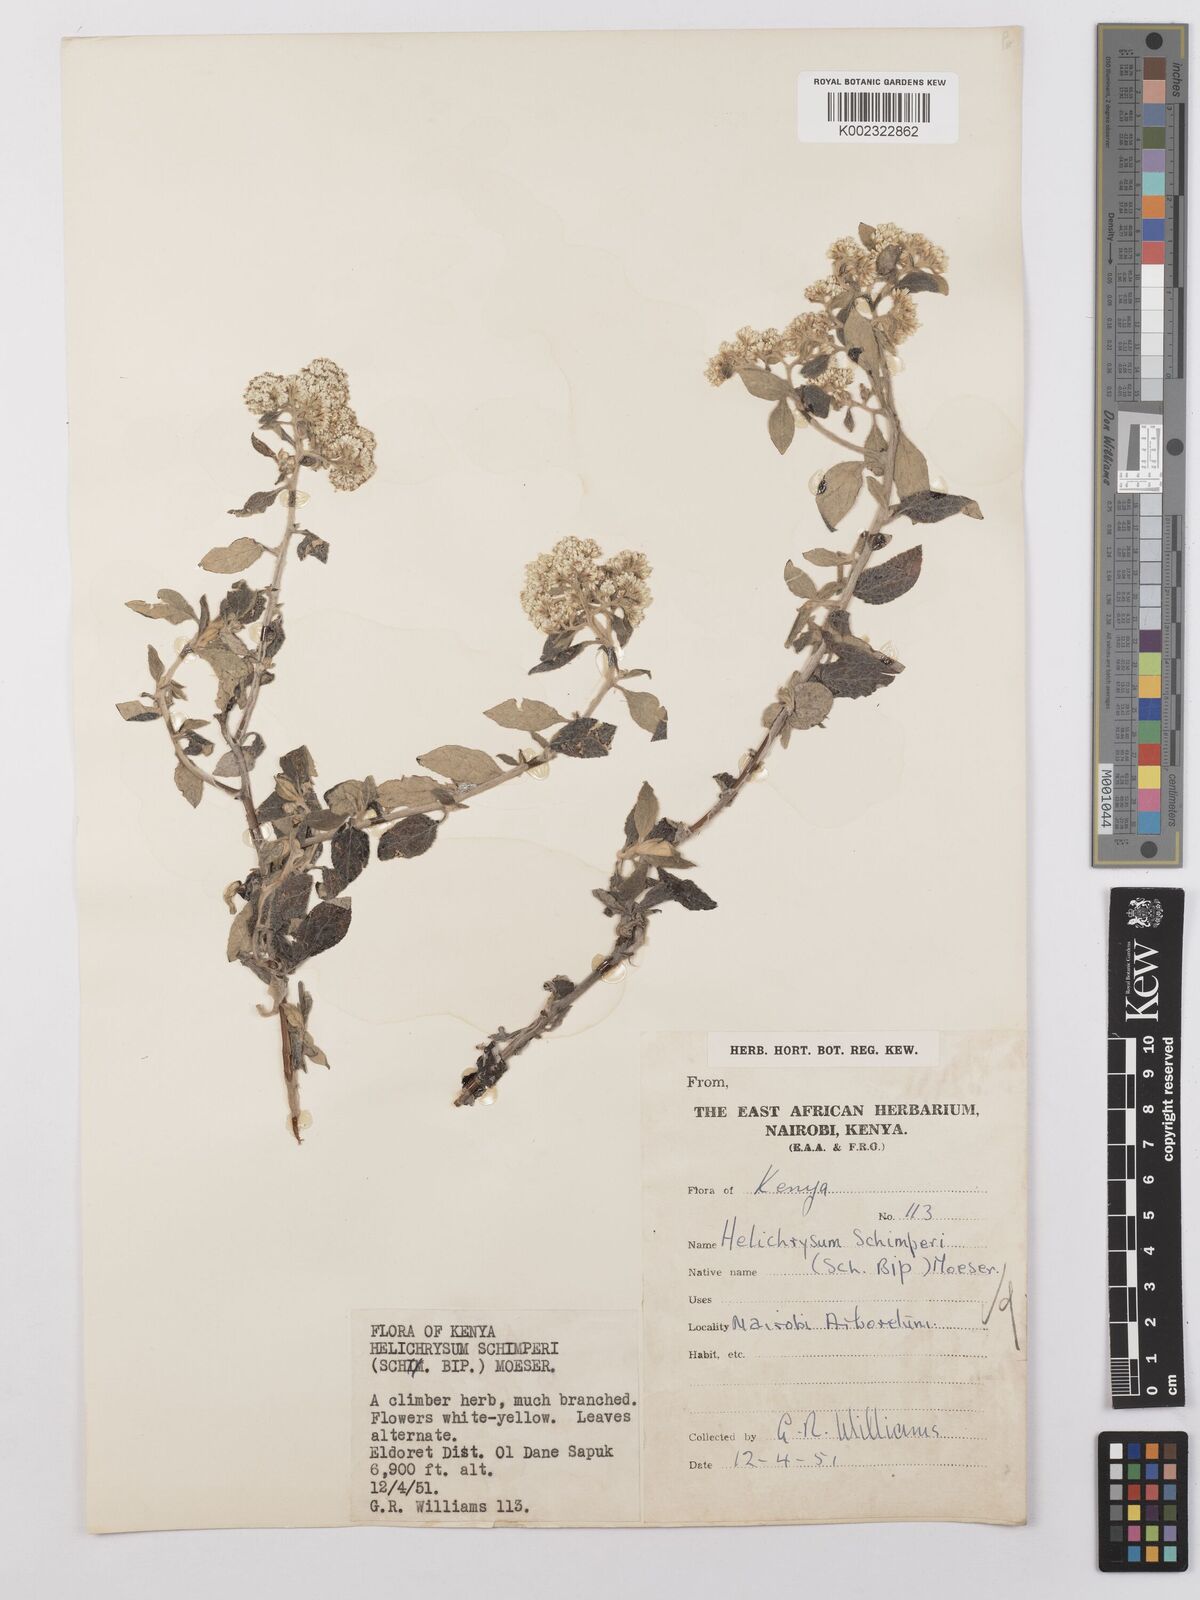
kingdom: Plantae
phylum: Tracheophyta
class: Magnoliopsida
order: Asterales
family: Asteraceae
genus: Helichrysum
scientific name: Helichrysum schimperi
